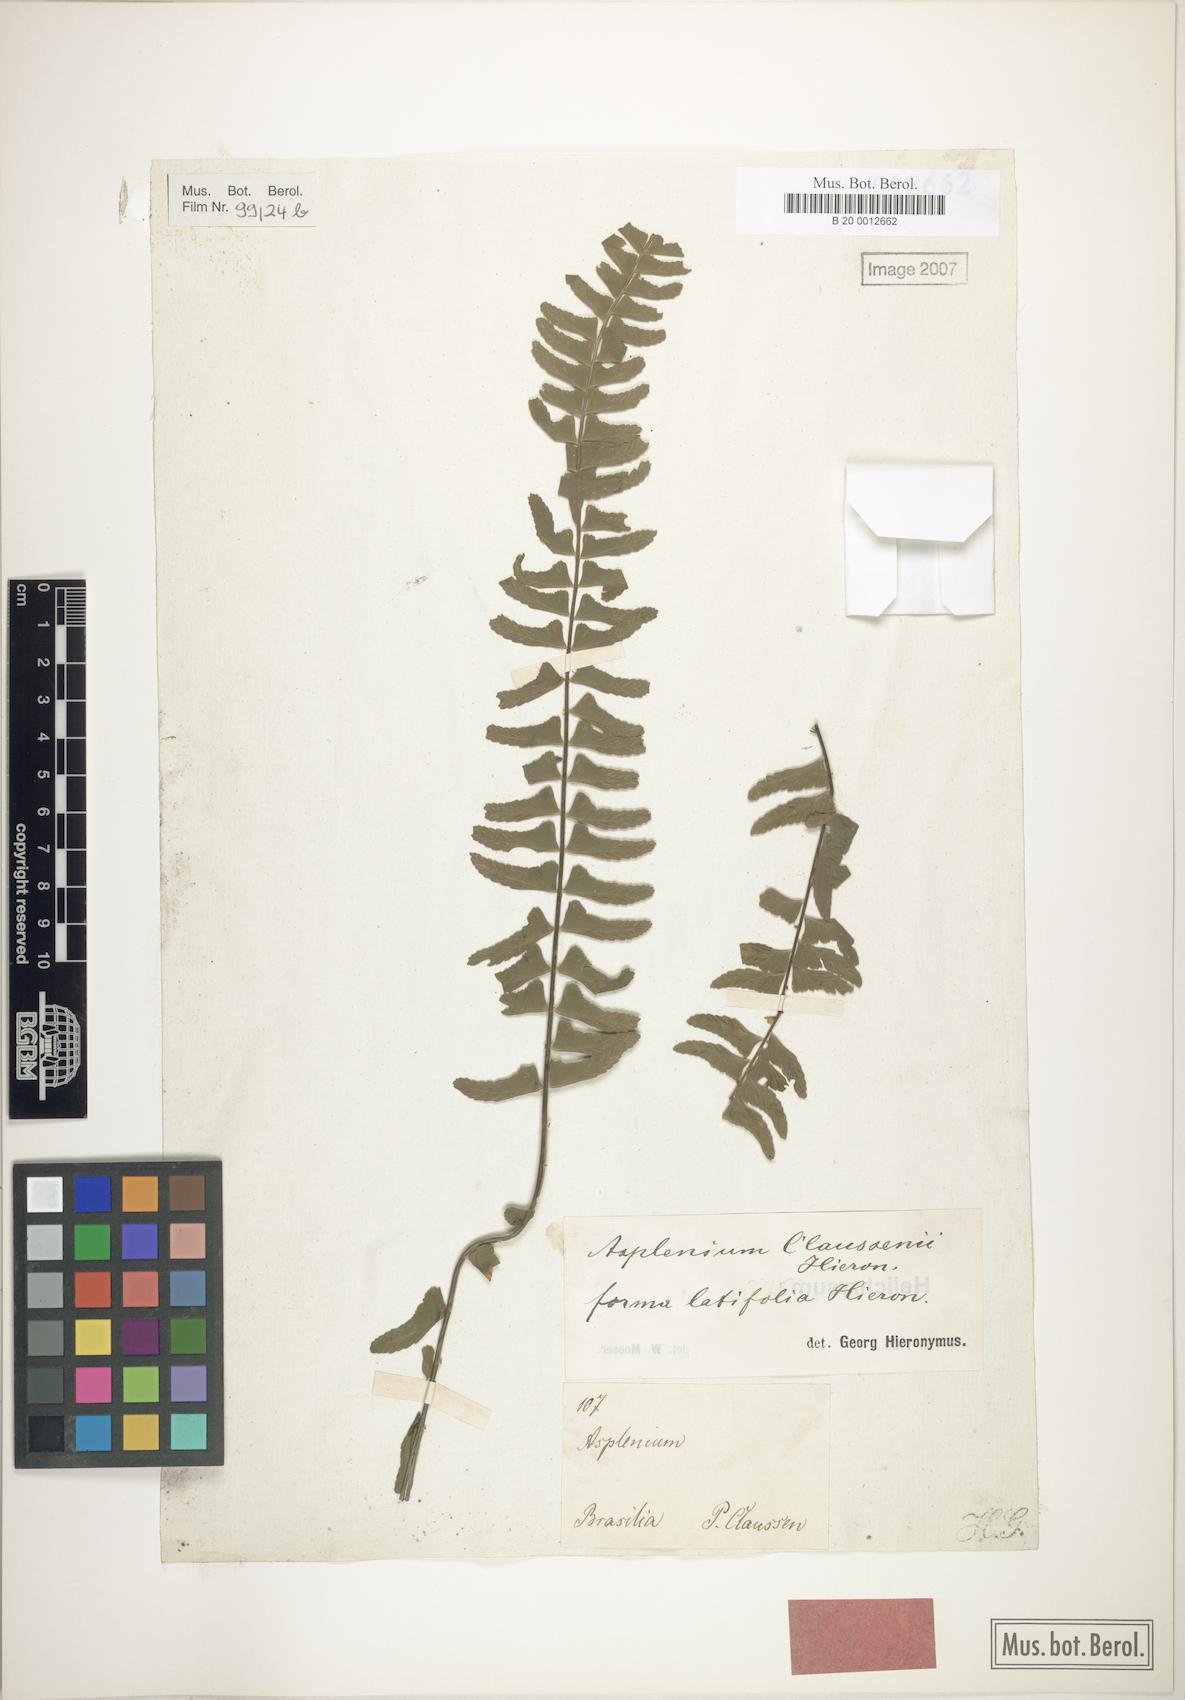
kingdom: Plantae
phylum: Tracheophyta
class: Polypodiopsida
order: Polypodiales
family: Aspleniaceae
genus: Asplenium
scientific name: Asplenium claussenii
